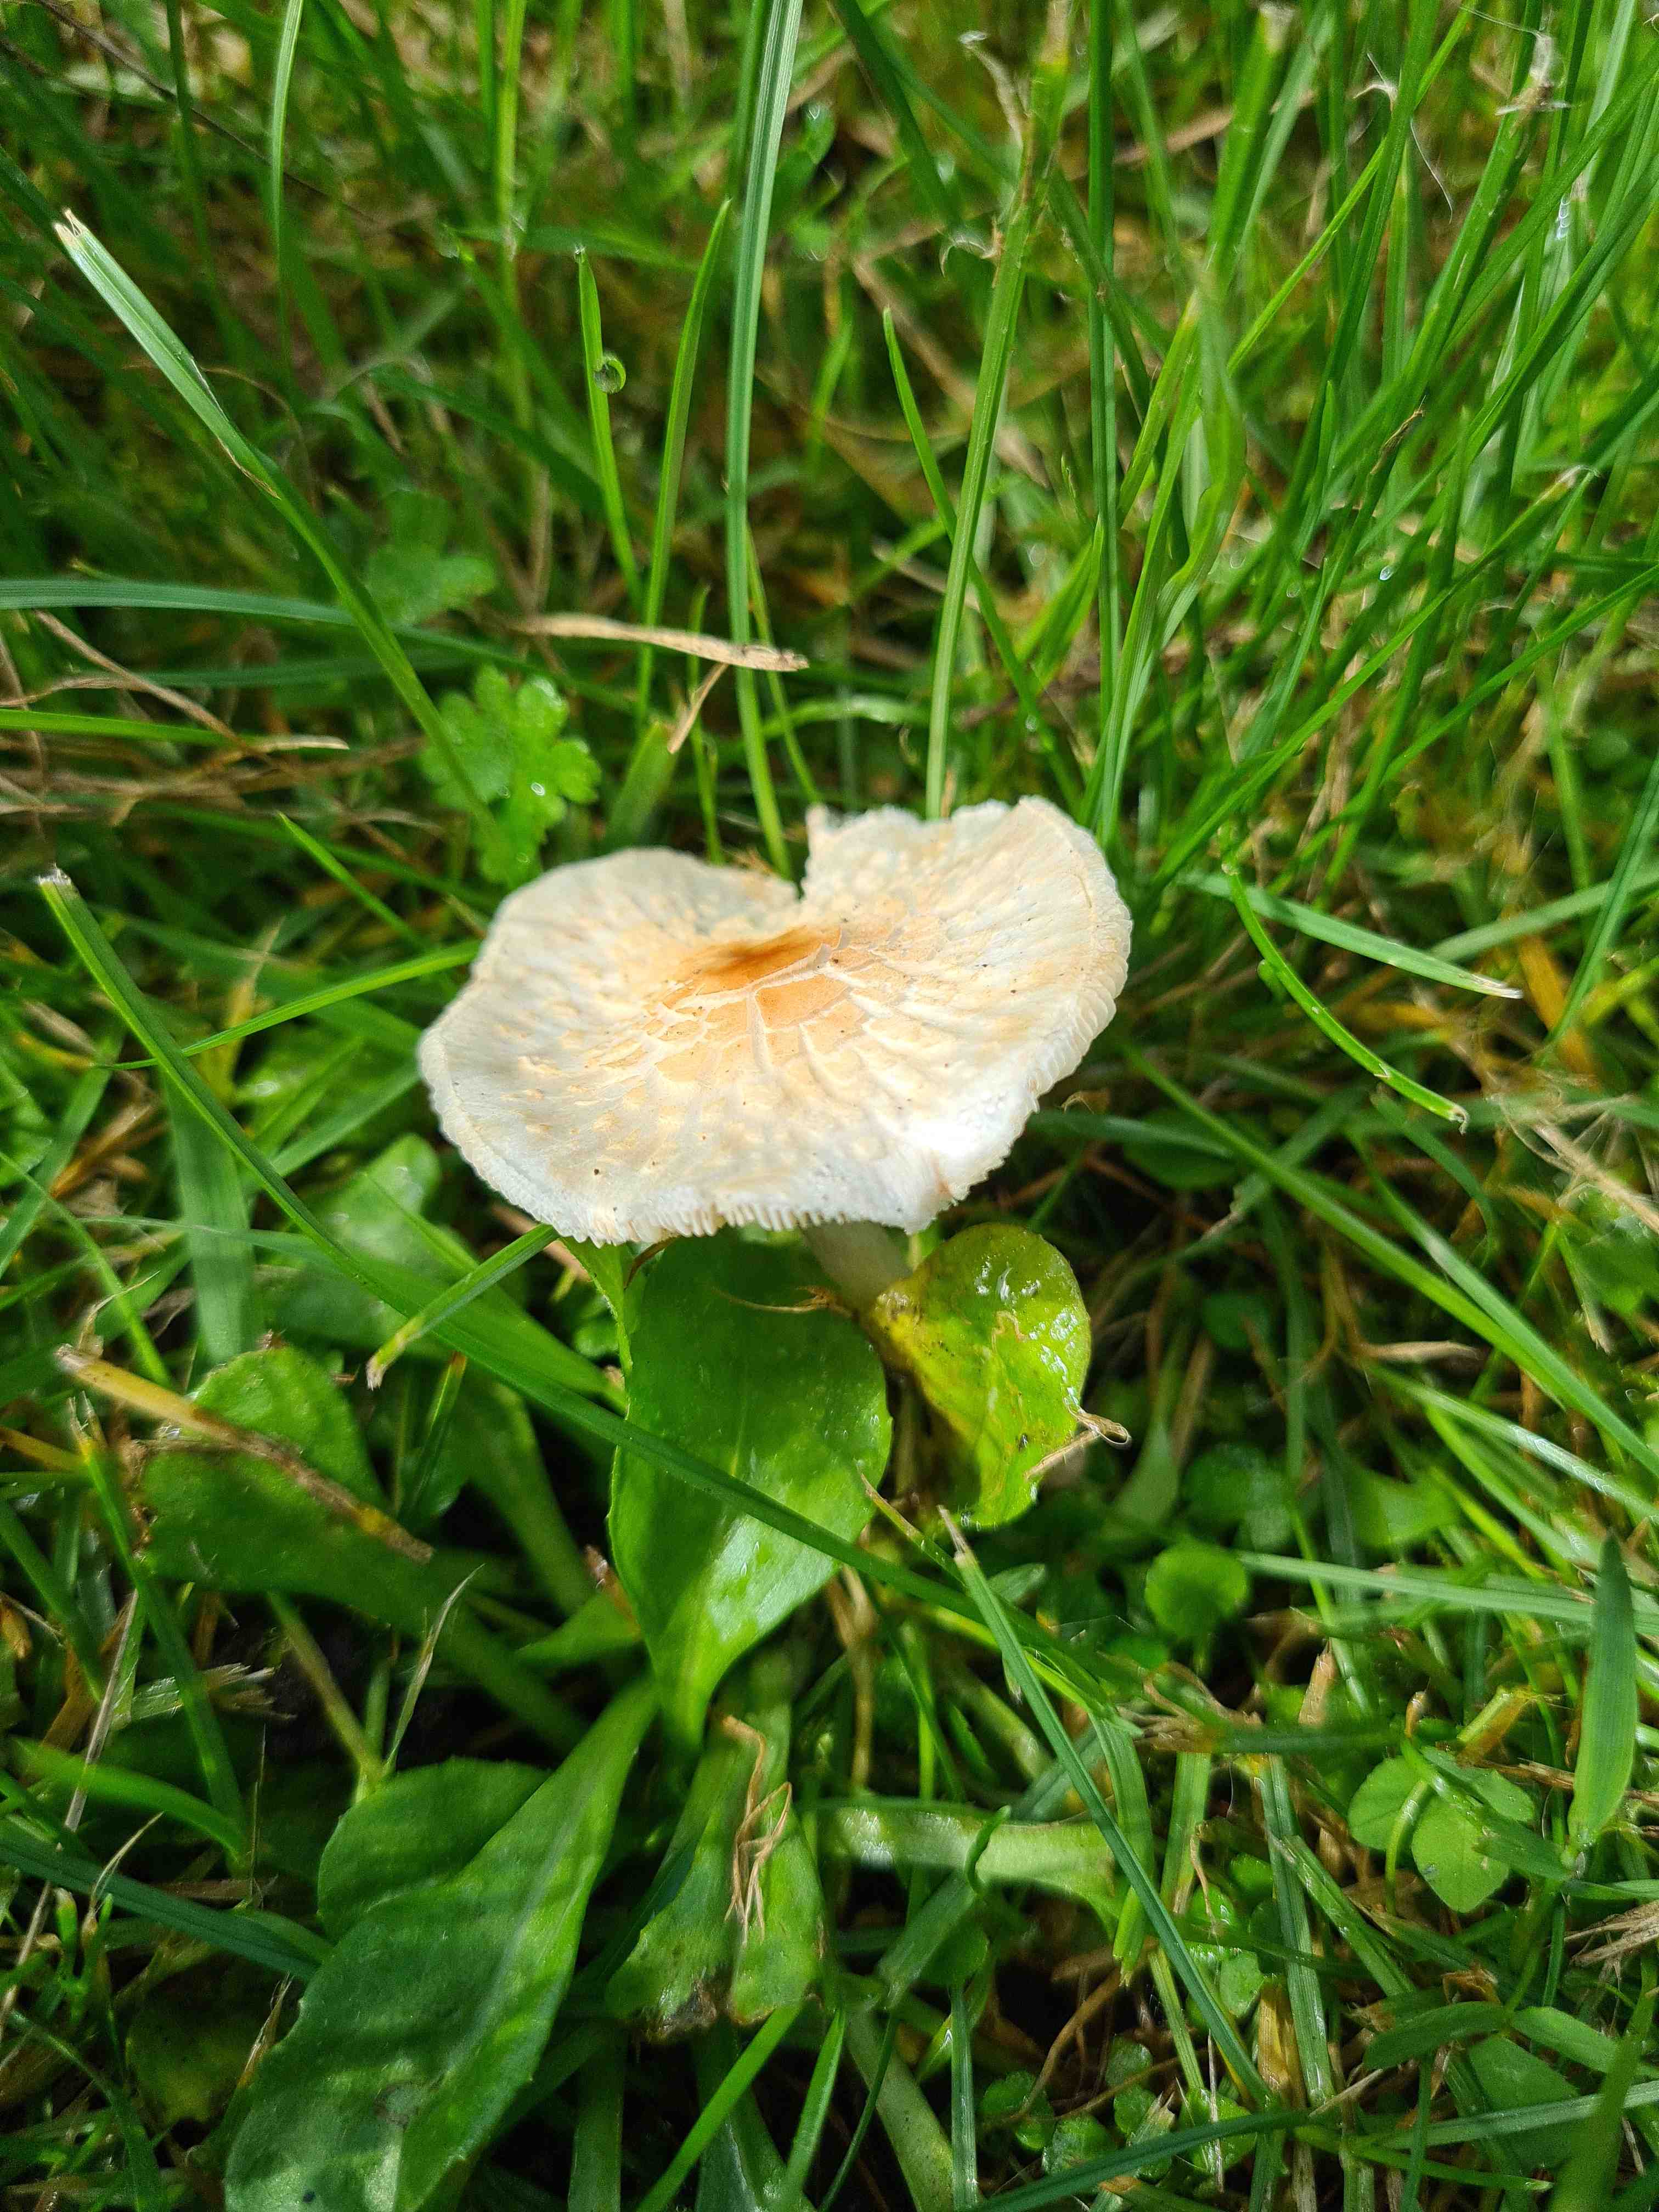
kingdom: Fungi
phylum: Basidiomycota
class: Agaricomycetes
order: Agaricales
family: Agaricaceae
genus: Lepiota
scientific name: Lepiota cristata
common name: stinkende parasolhat
